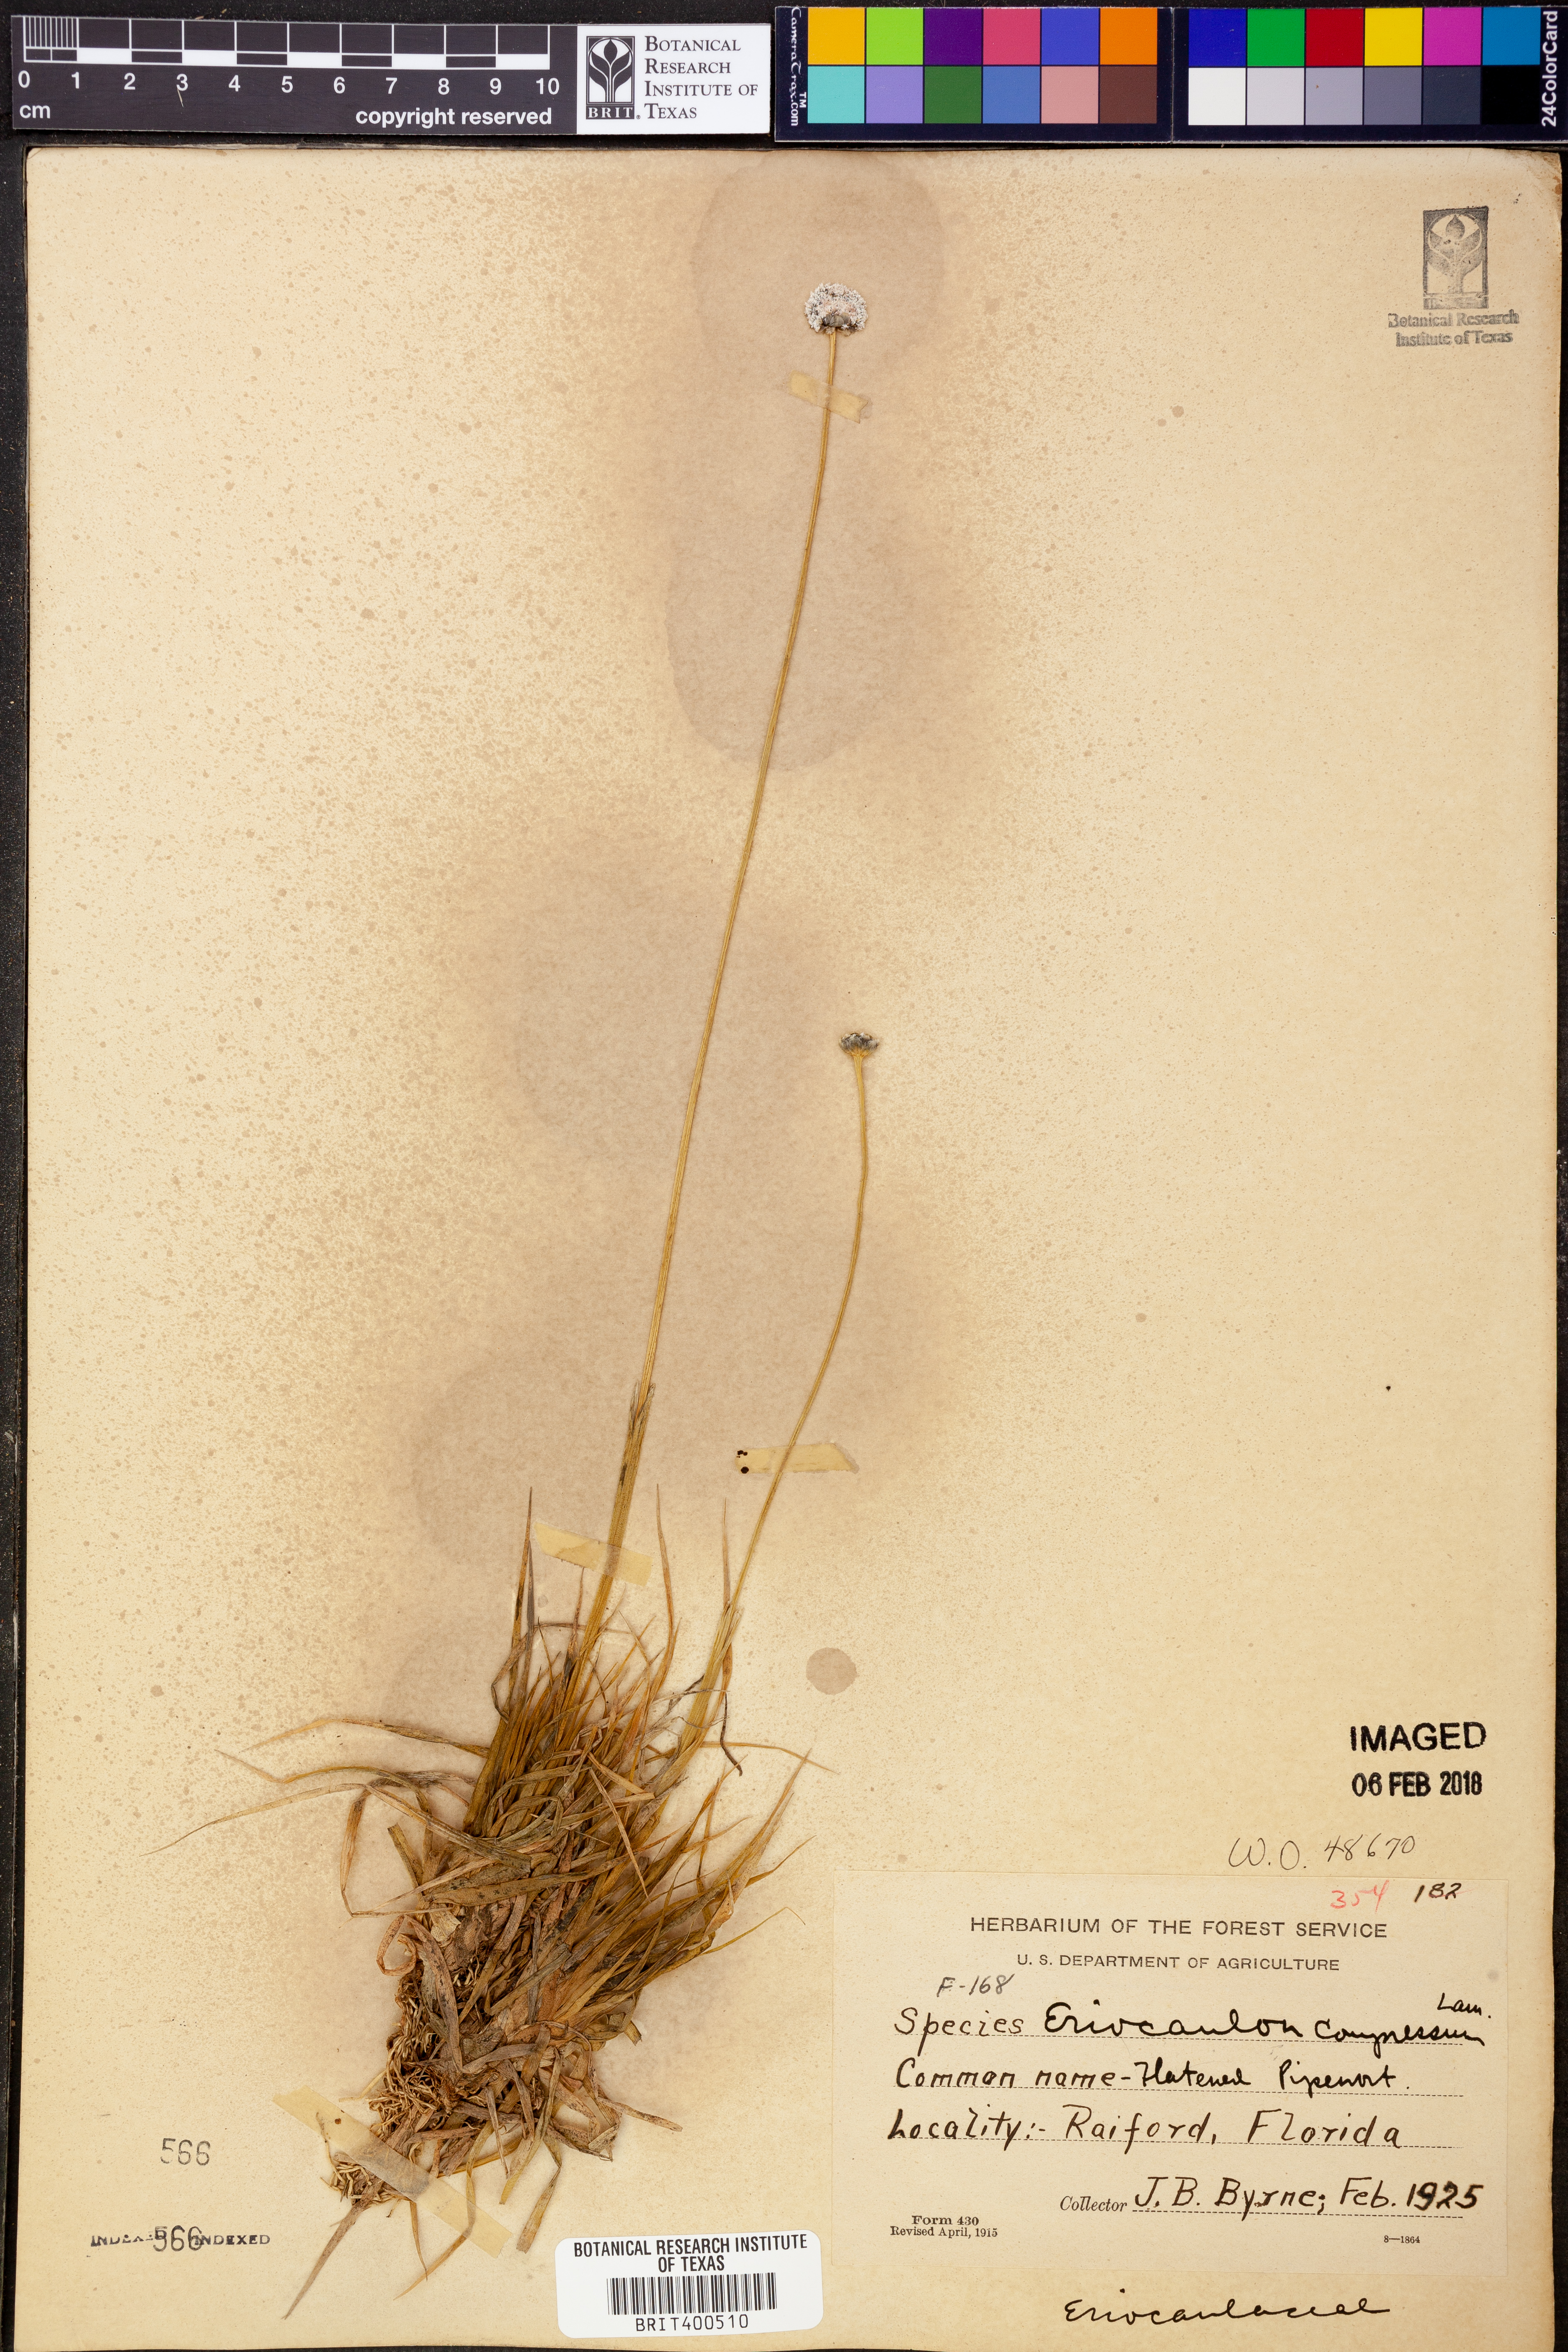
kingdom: Plantae
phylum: Tracheophyta
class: Liliopsida
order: Poales
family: Eriocaulaceae
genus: Eriocaulon
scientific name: Eriocaulon compressum
